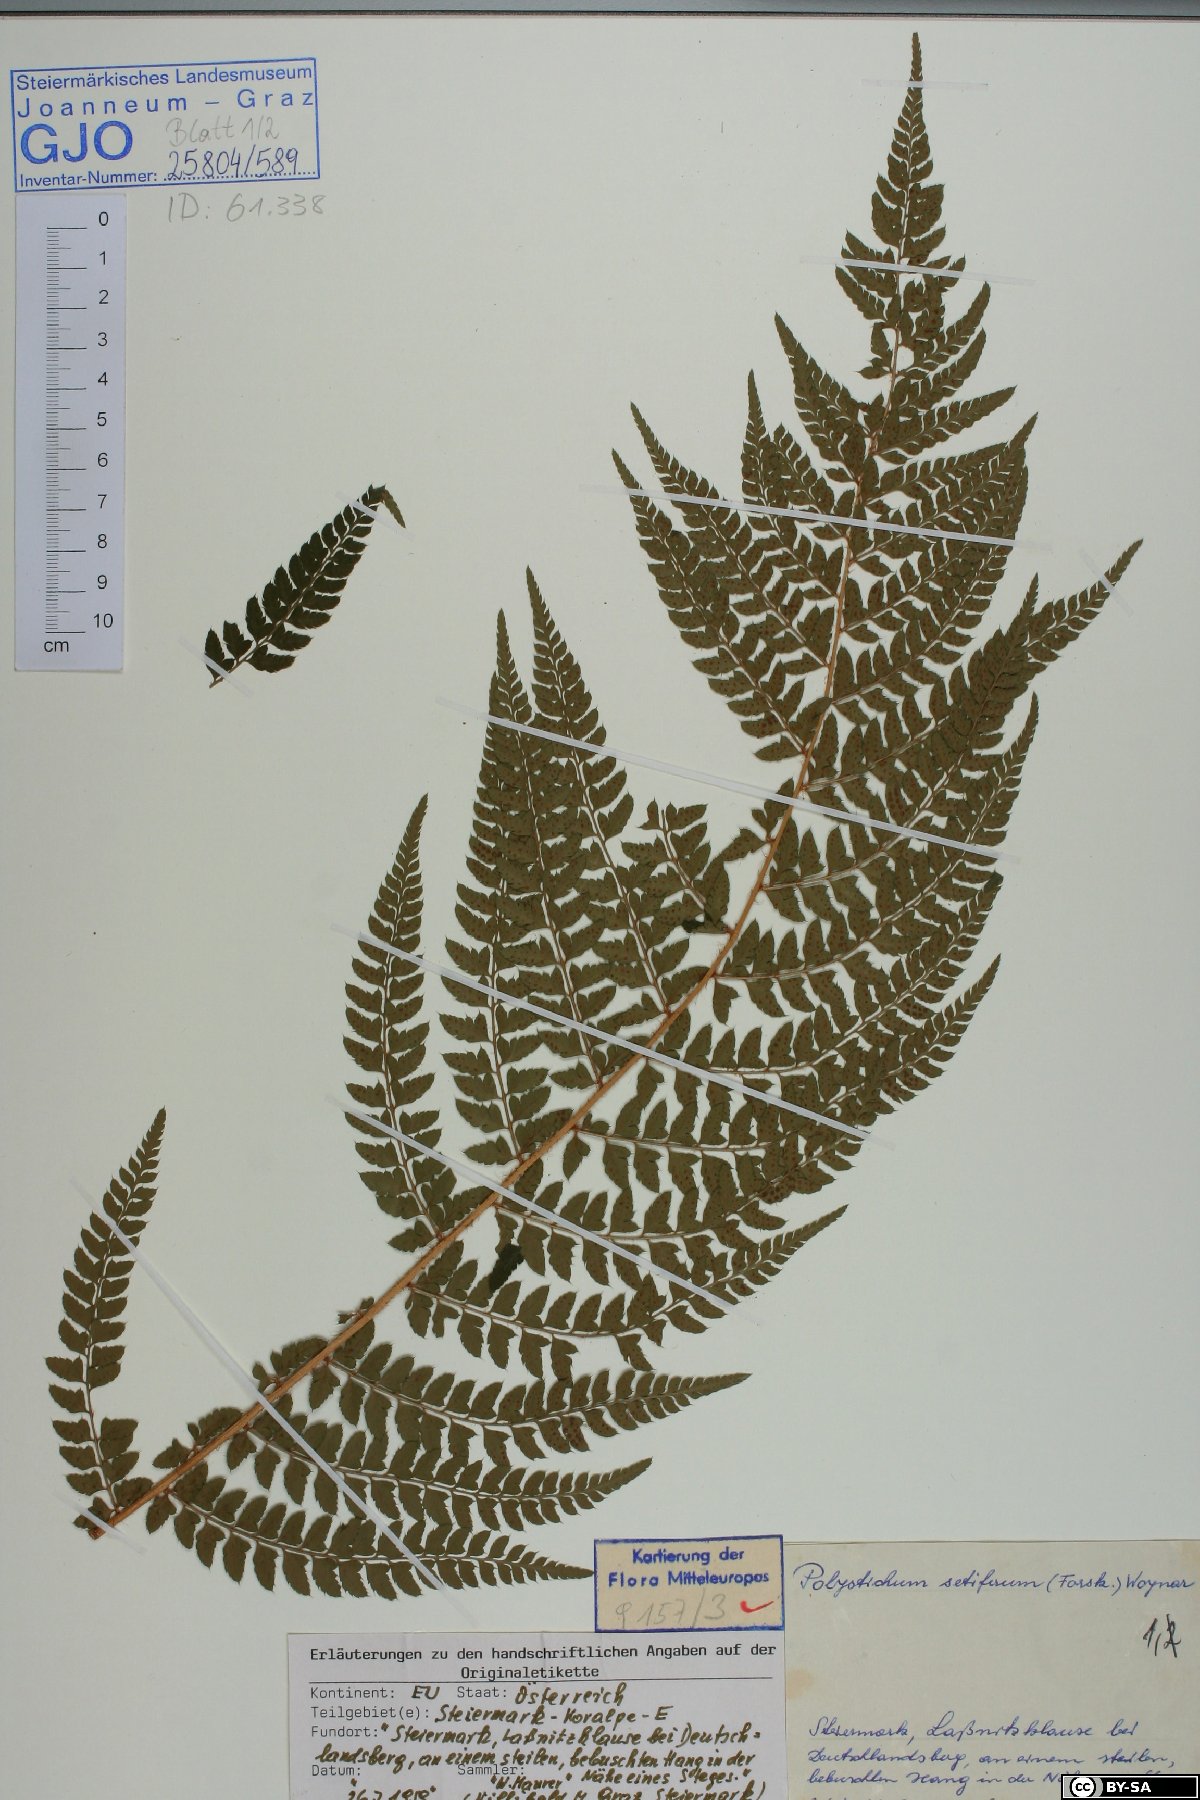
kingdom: Plantae
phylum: Tracheophyta
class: Polypodiopsida
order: Polypodiales
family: Dryopteridaceae
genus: Polystichum
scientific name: Polystichum setiferum
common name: Soft shield-fern
